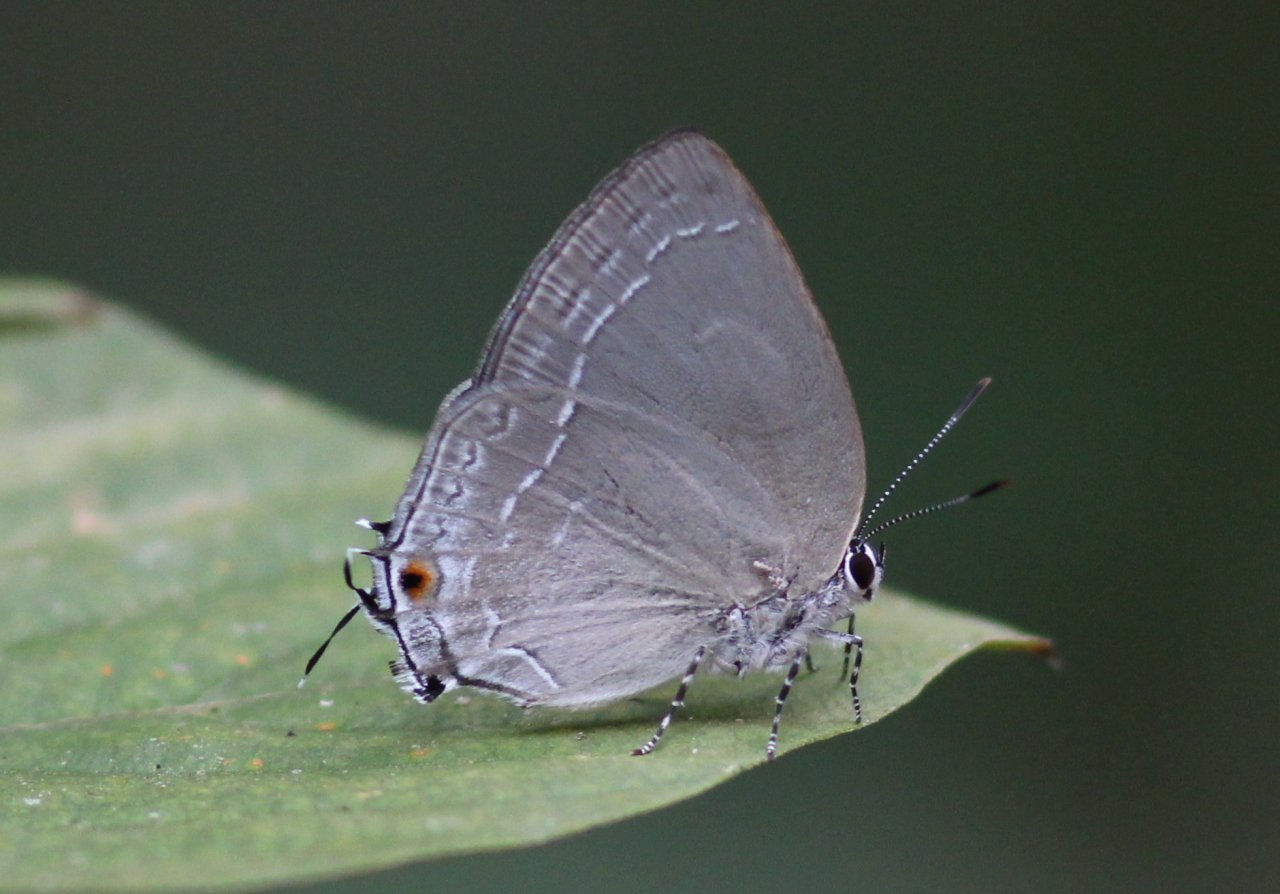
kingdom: Animalia
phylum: Arthropoda
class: Insecta
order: Lepidoptera
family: Lycaenidae
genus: Strephonota
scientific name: Strephonota tephraeus
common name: Pearly-Gray Hairstreak
